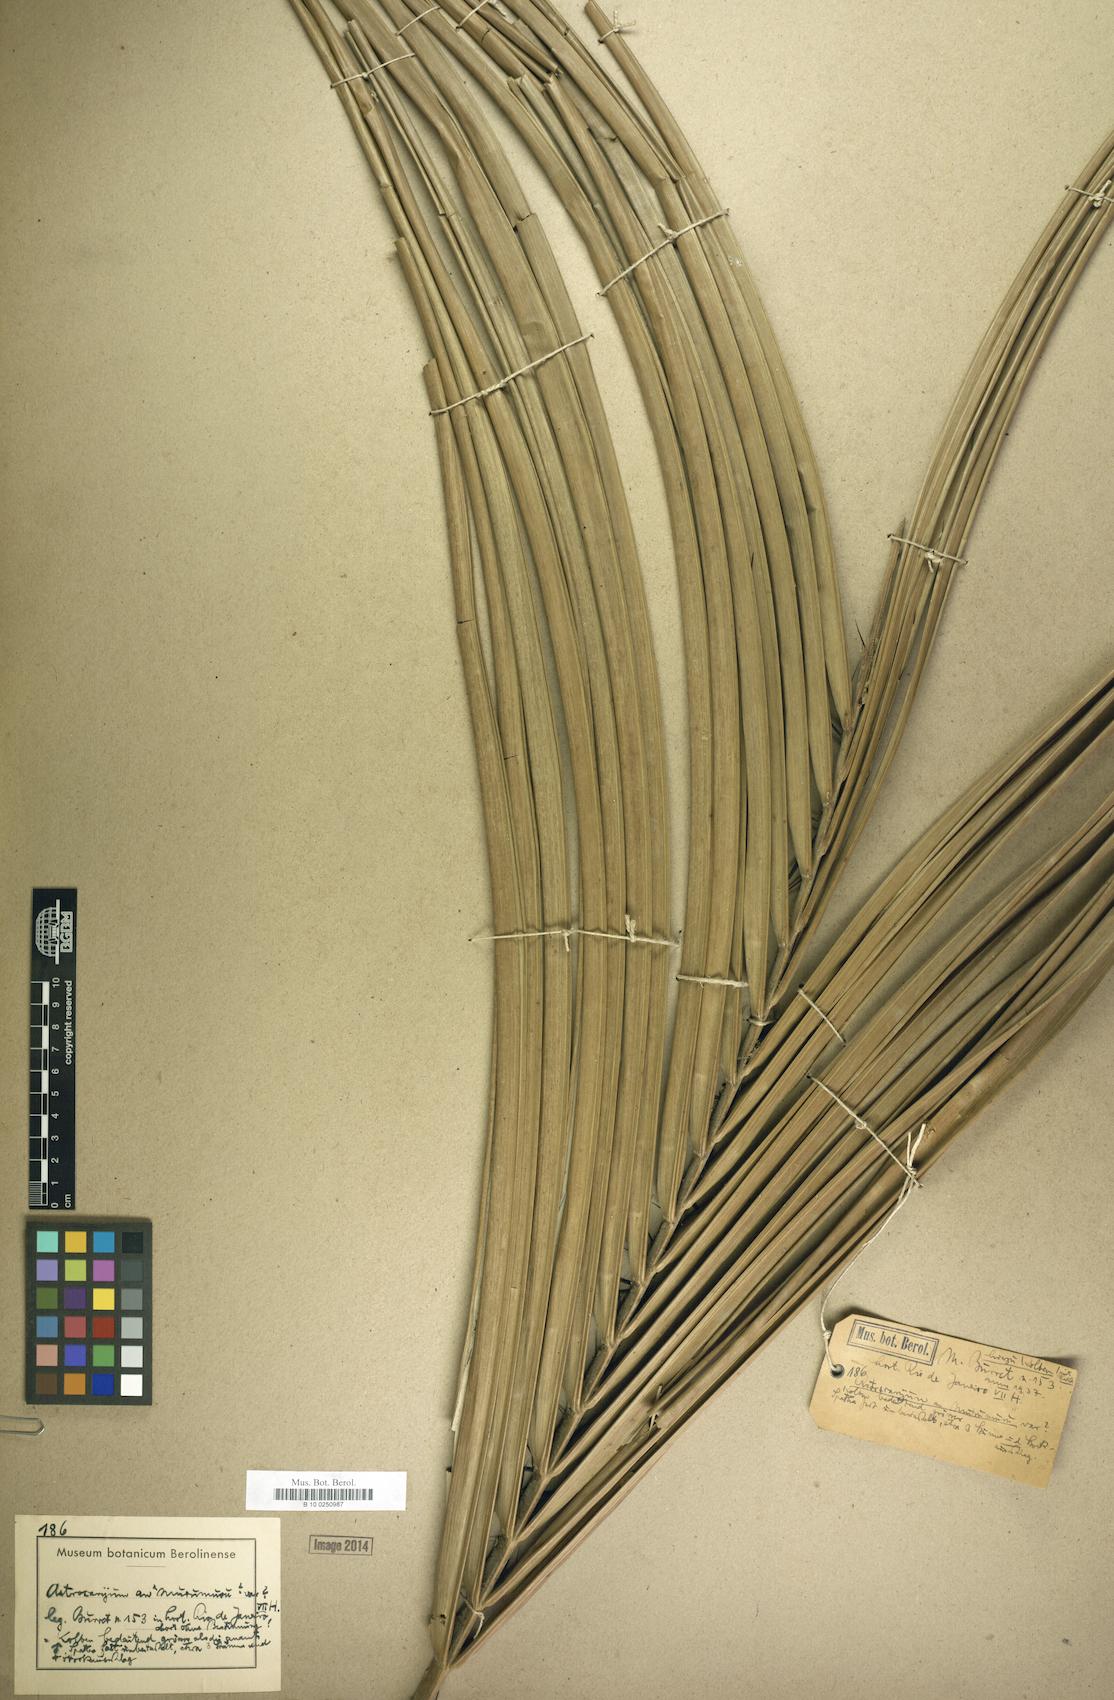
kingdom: Plantae
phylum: Tracheophyta
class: Liliopsida
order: Arecales
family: Arecaceae
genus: Astrocaryum
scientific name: Astrocaryum
